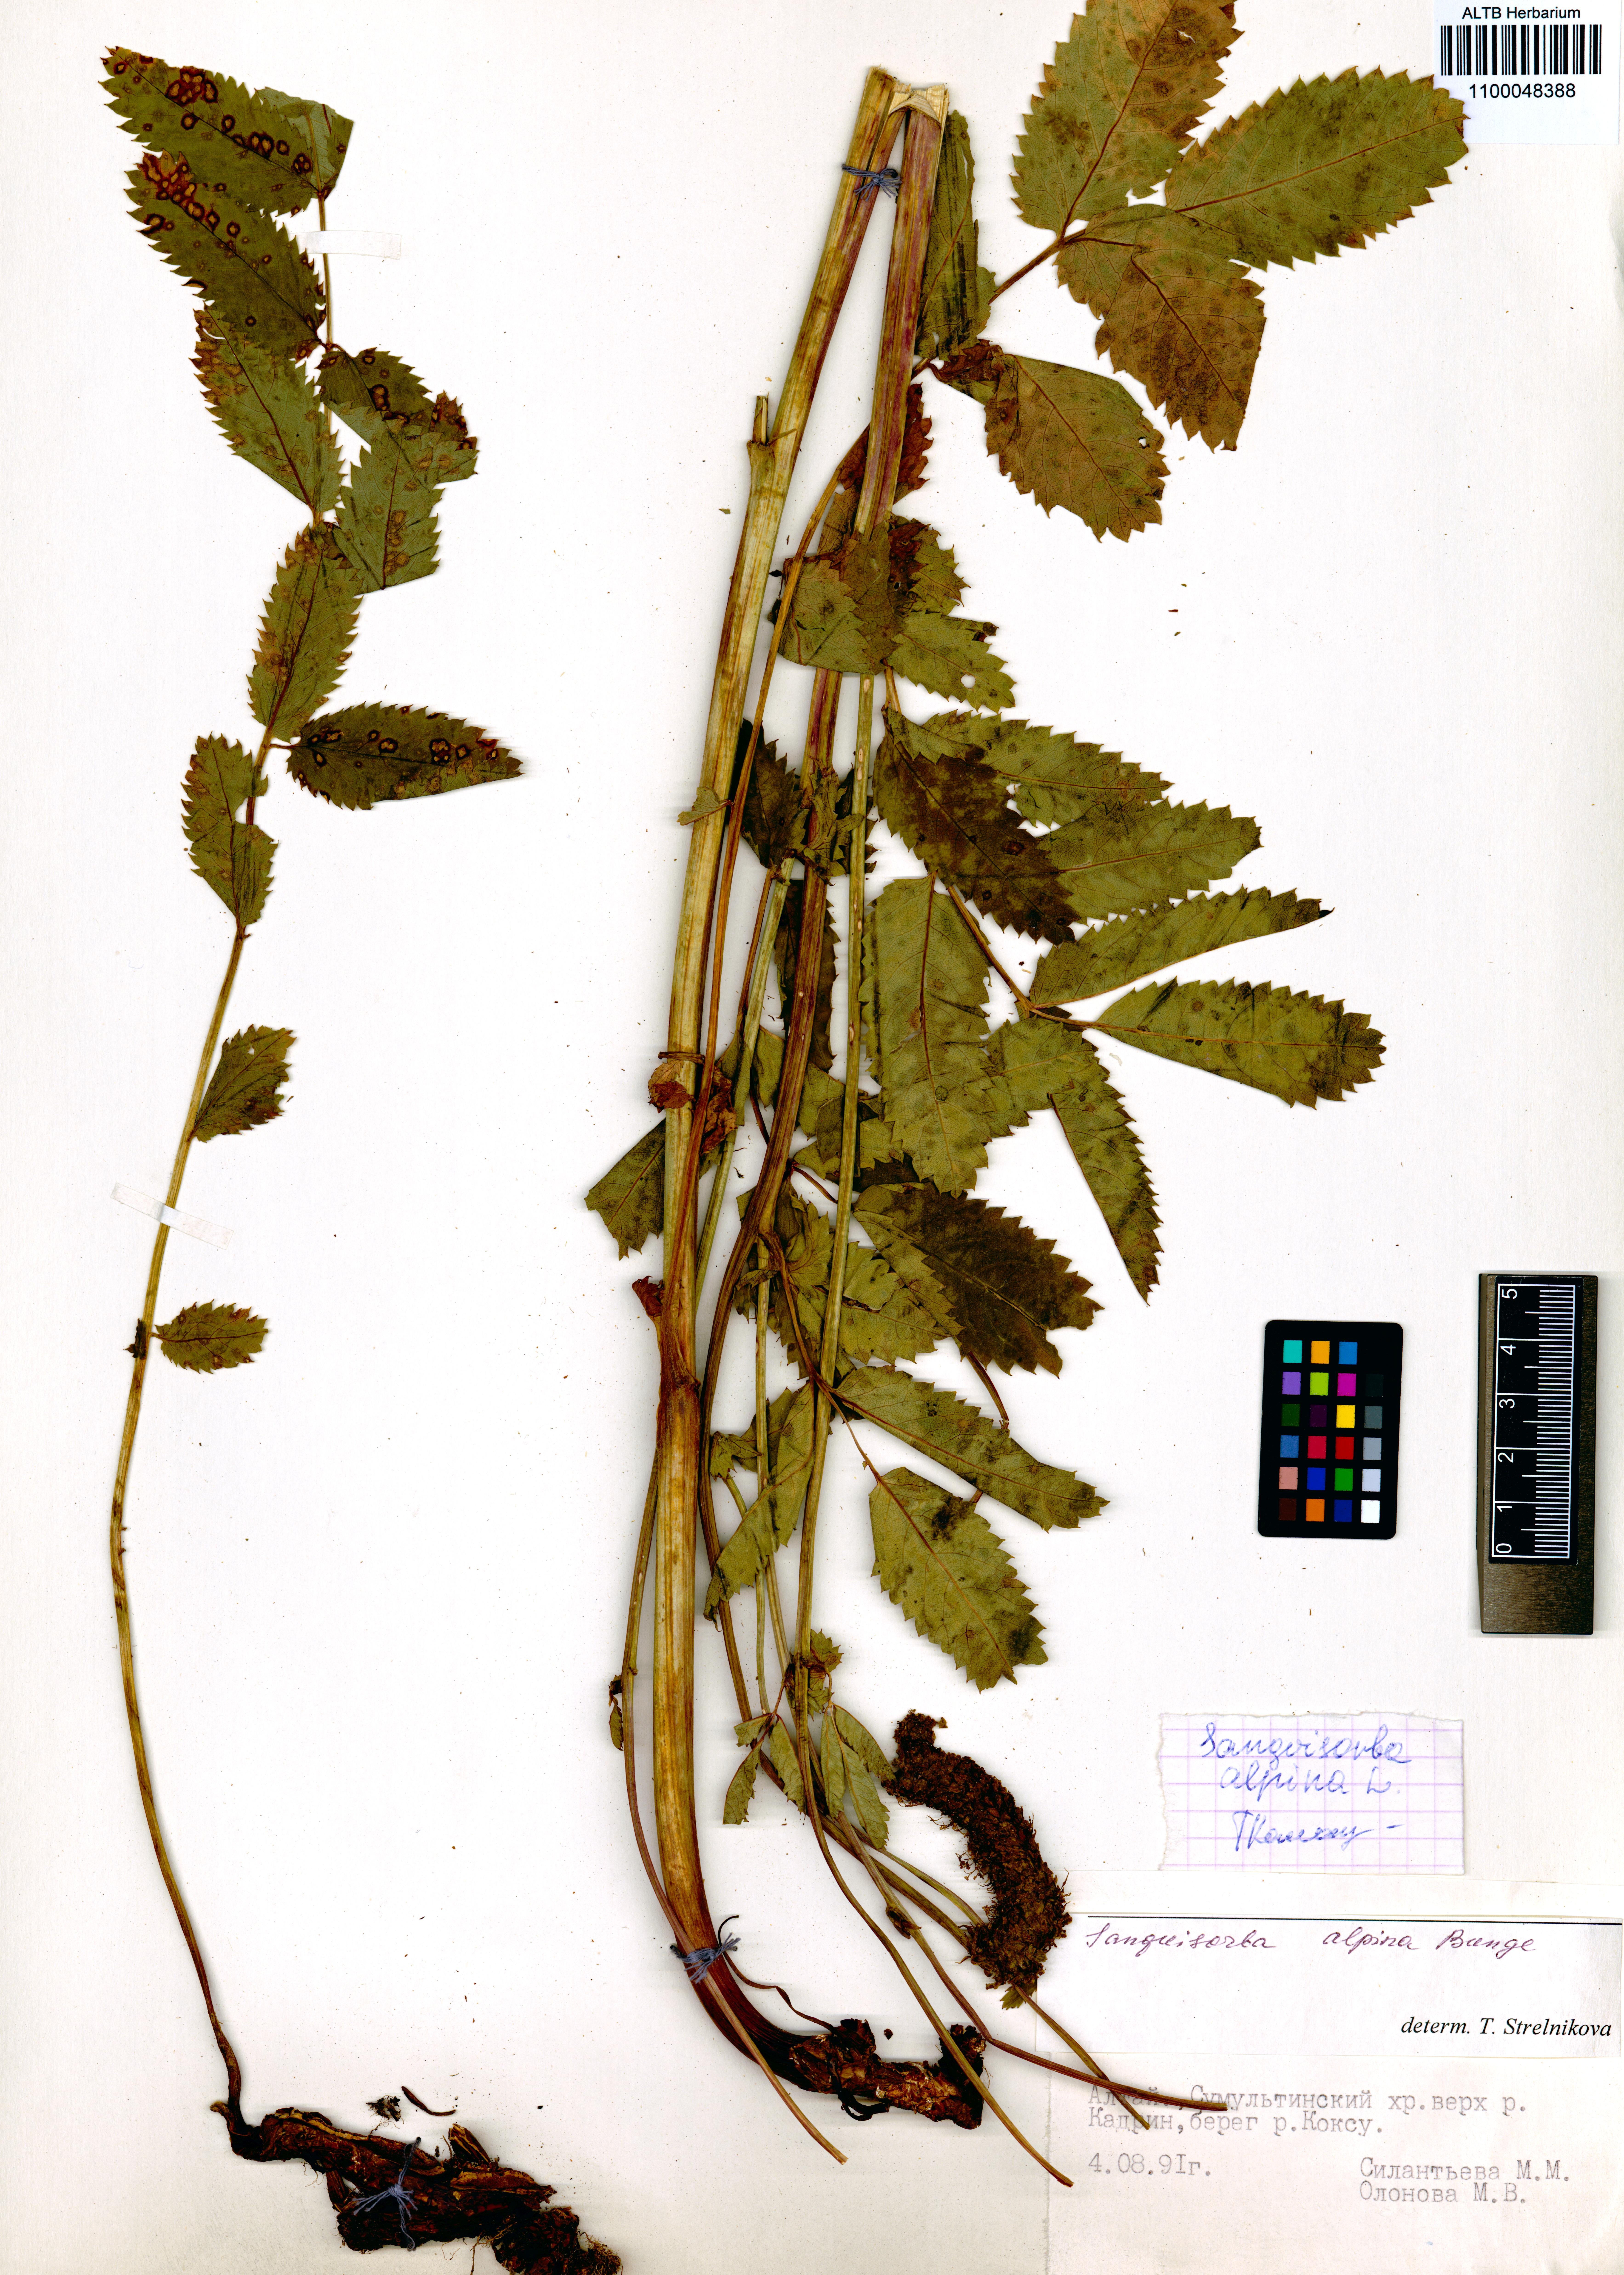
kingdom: Plantae
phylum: Tracheophyta
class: Magnoliopsida
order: Rosales
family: Rosaceae
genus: Sanguisorba
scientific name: Sanguisorba alpina
